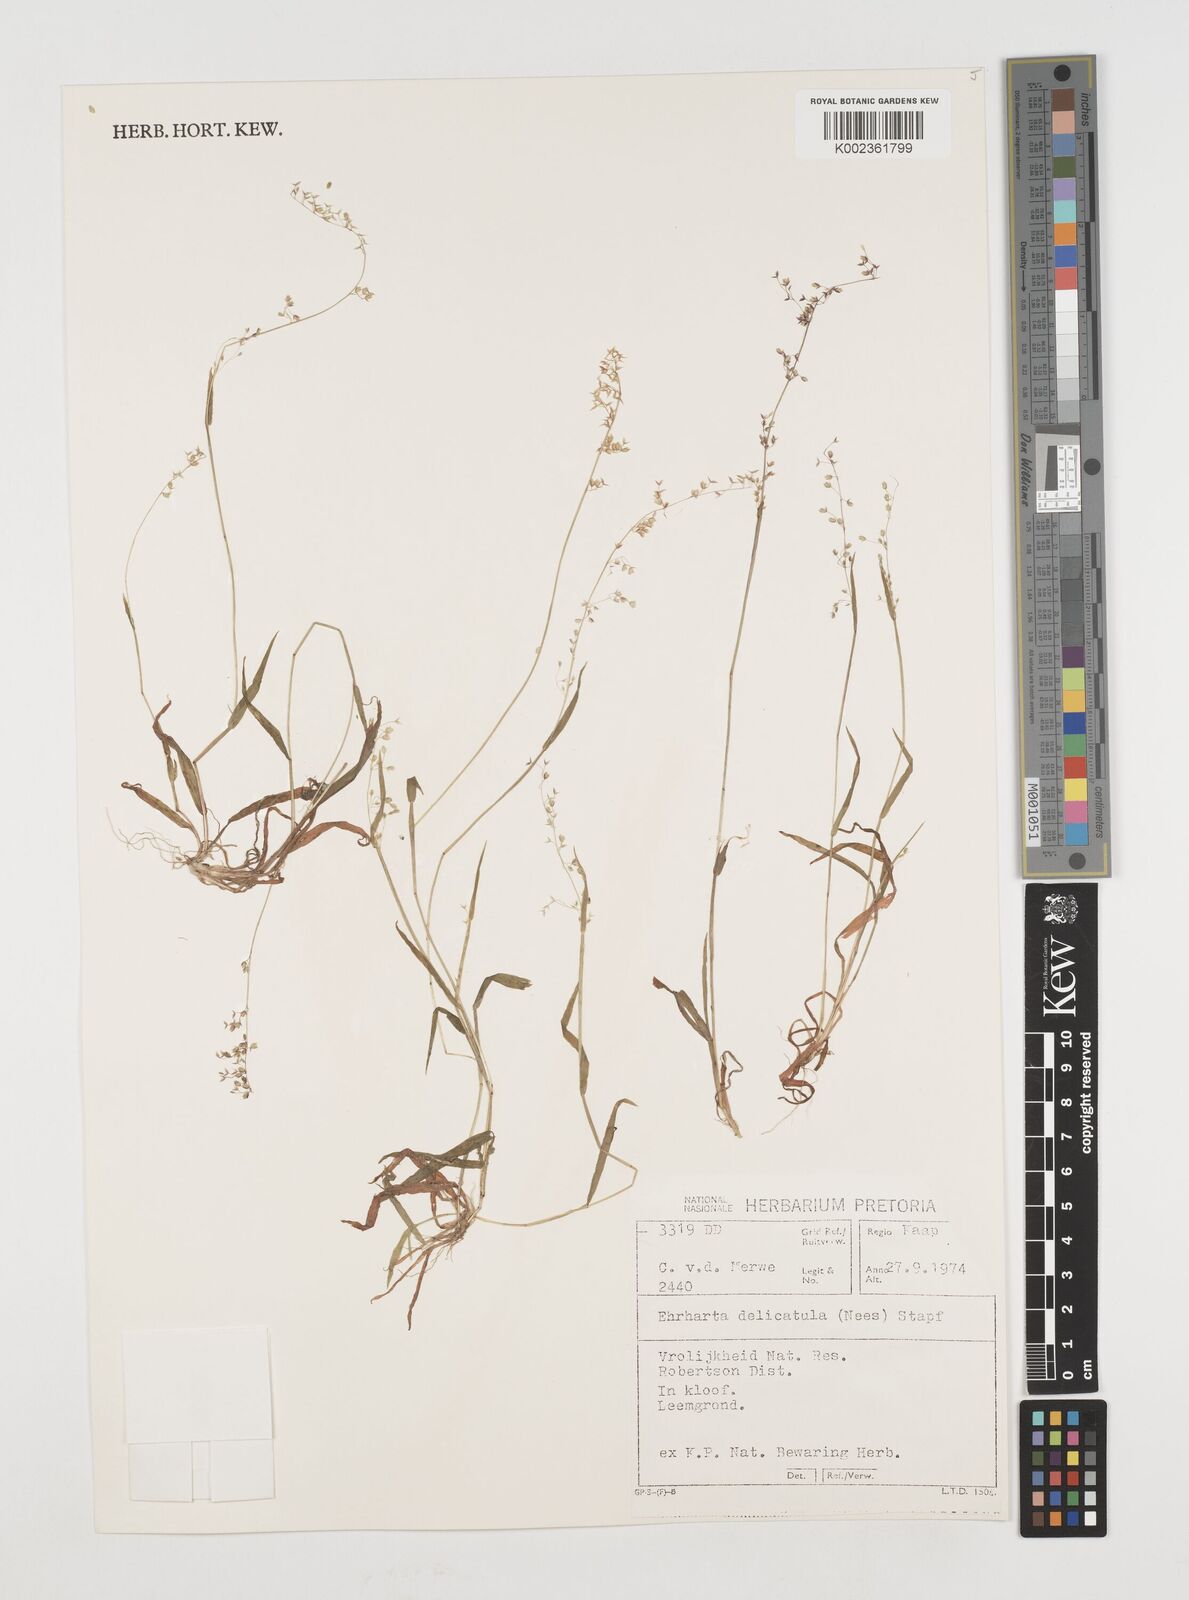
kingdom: Plantae
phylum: Tracheophyta
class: Liliopsida
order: Poales
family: Poaceae
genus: Ehrharta
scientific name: Ehrharta delicatula
